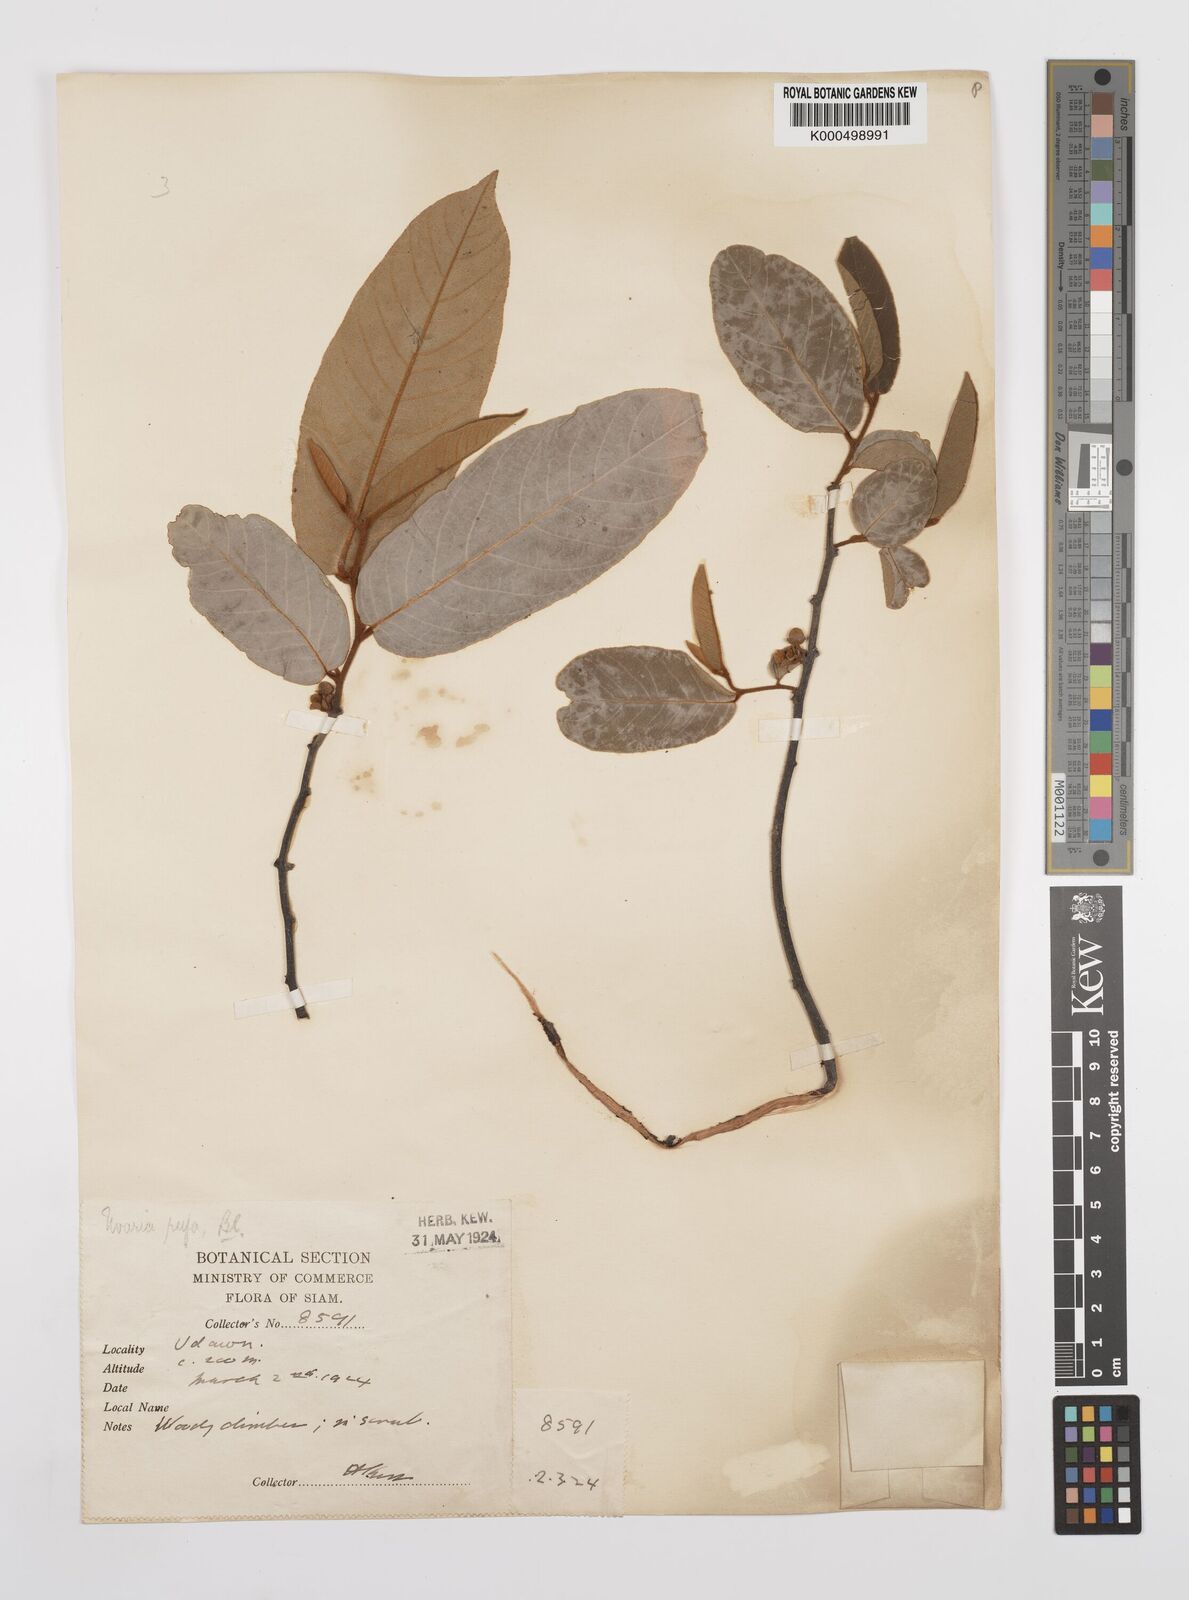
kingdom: Plantae
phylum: Tracheophyta
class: Magnoliopsida
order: Magnoliales
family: Annonaceae
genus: Uvaria
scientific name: Uvaria rufa
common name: Torres strait scrambler
